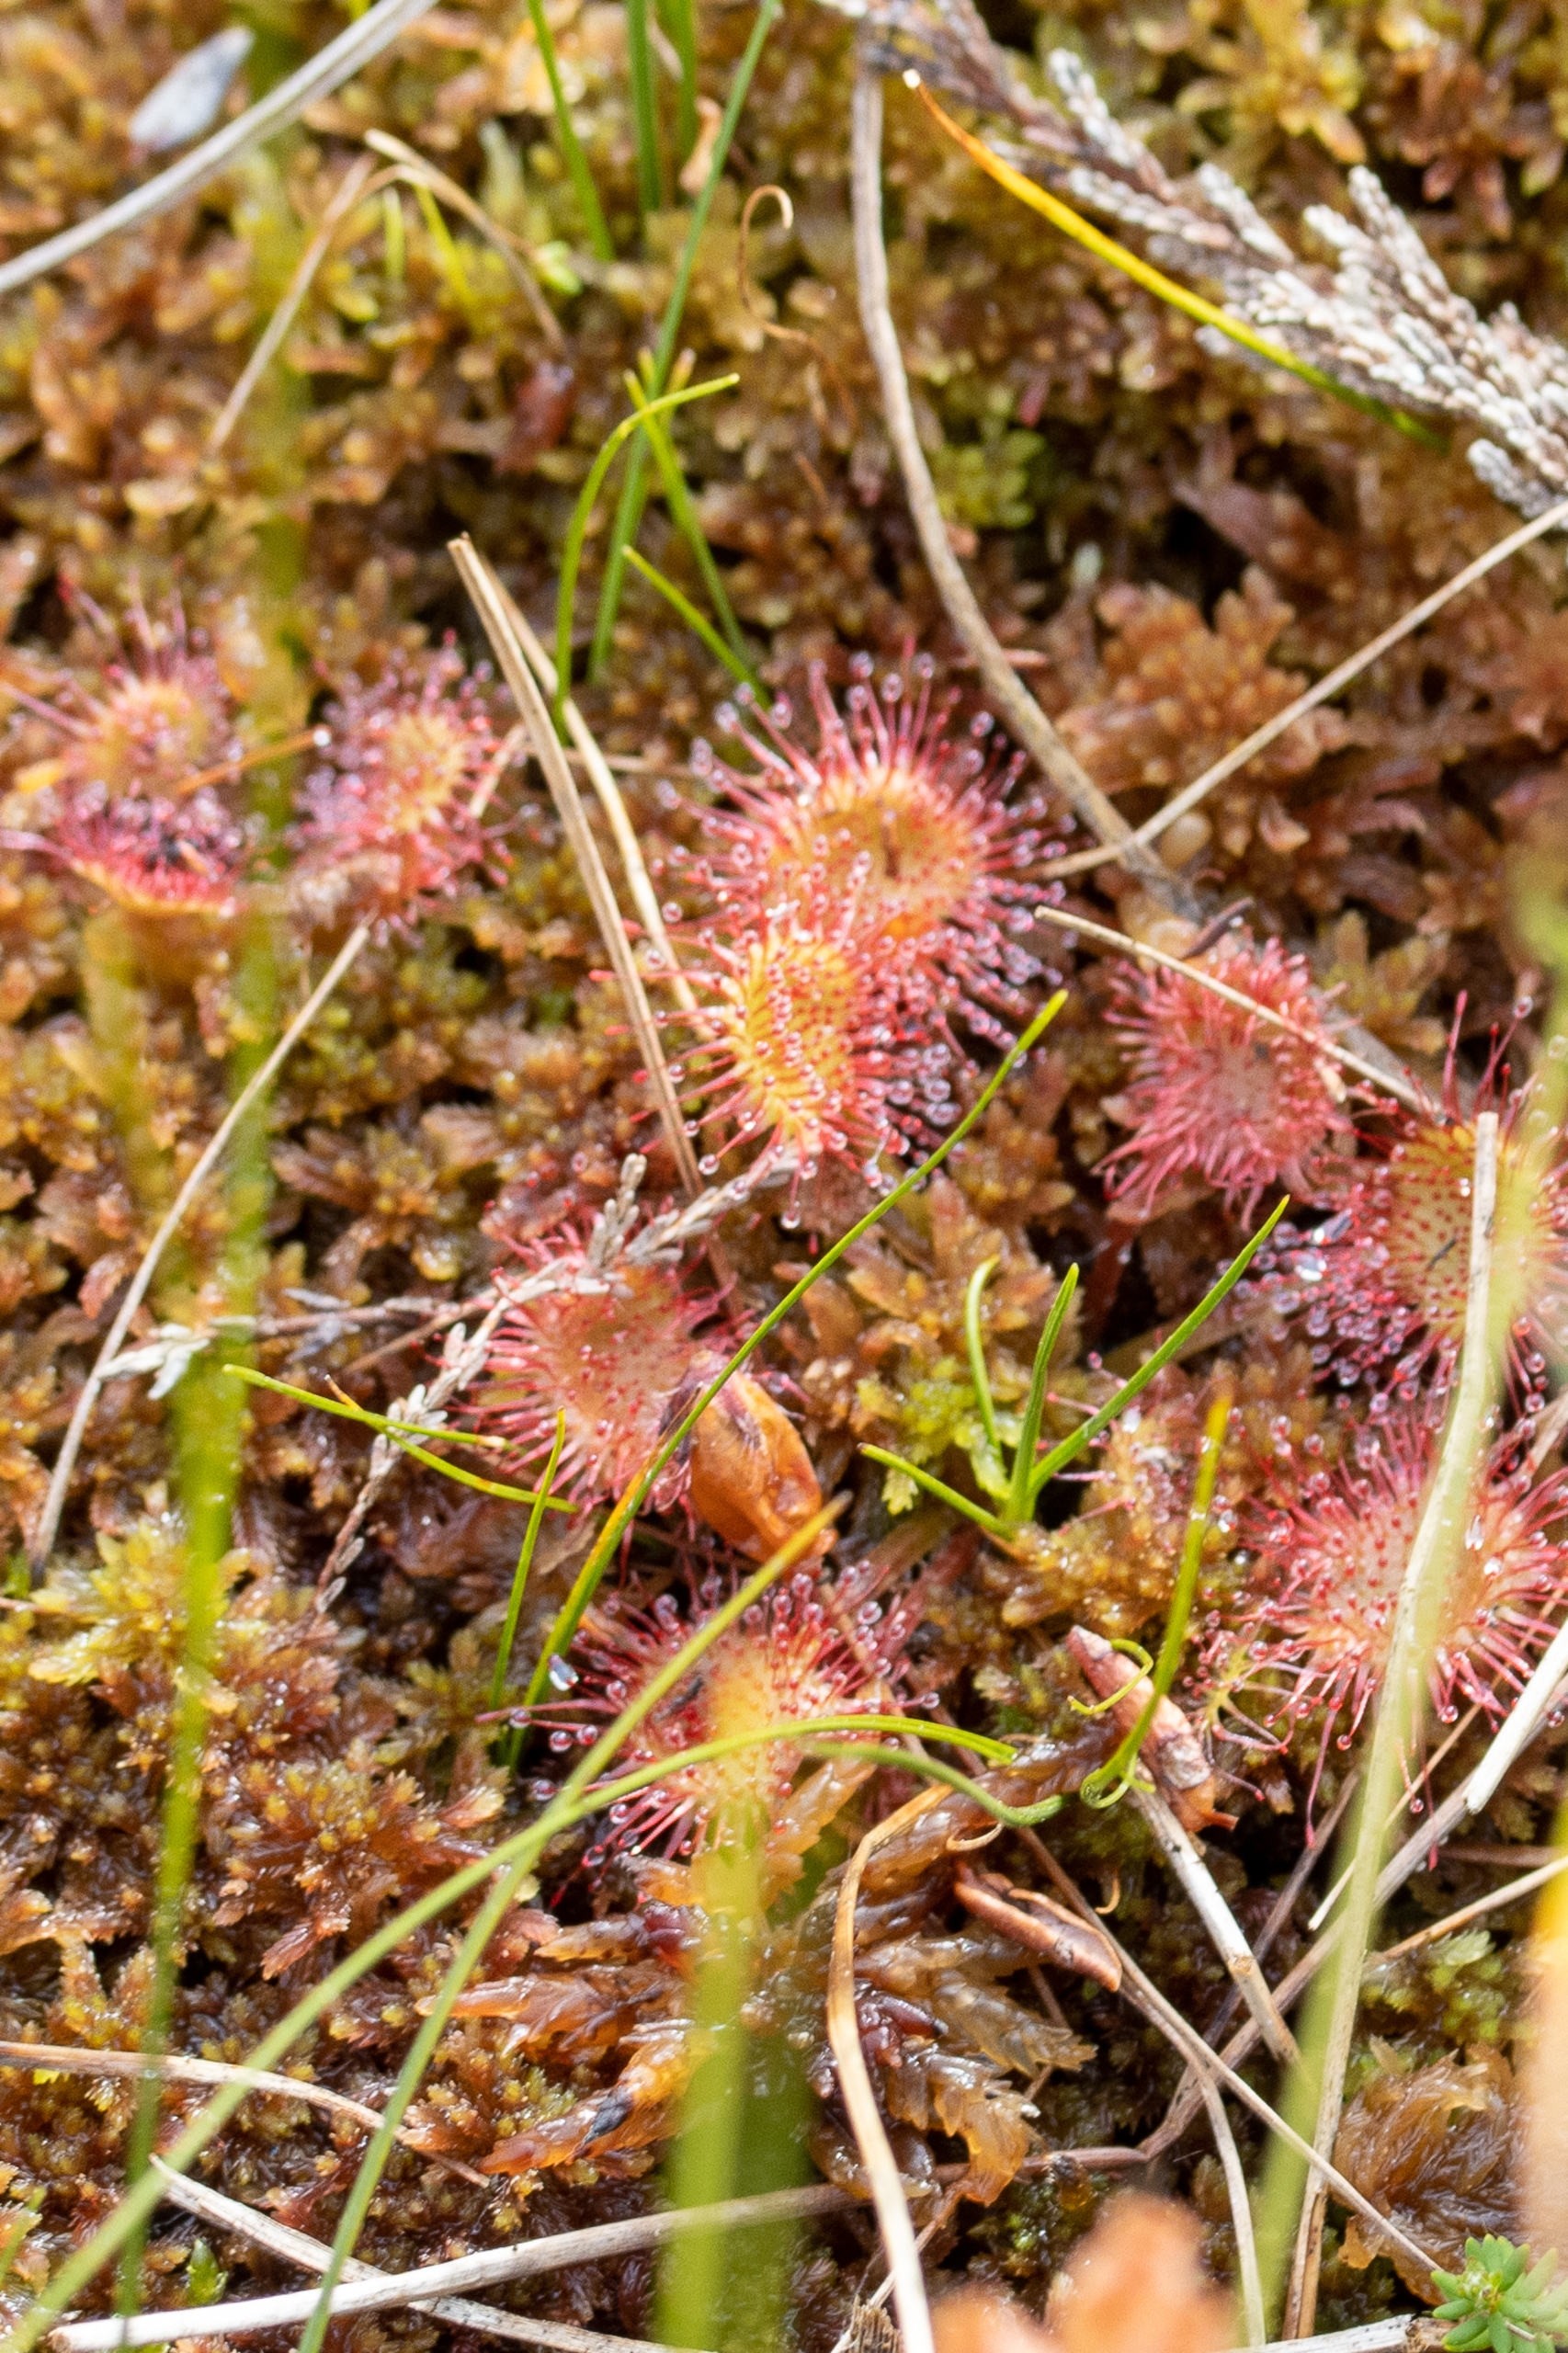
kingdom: Plantae
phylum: Tracheophyta
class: Magnoliopsida
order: Caryophyllales
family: Droseraceae
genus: Drosera
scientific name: Drosera rotundifolia
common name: Rundbladet soldug
